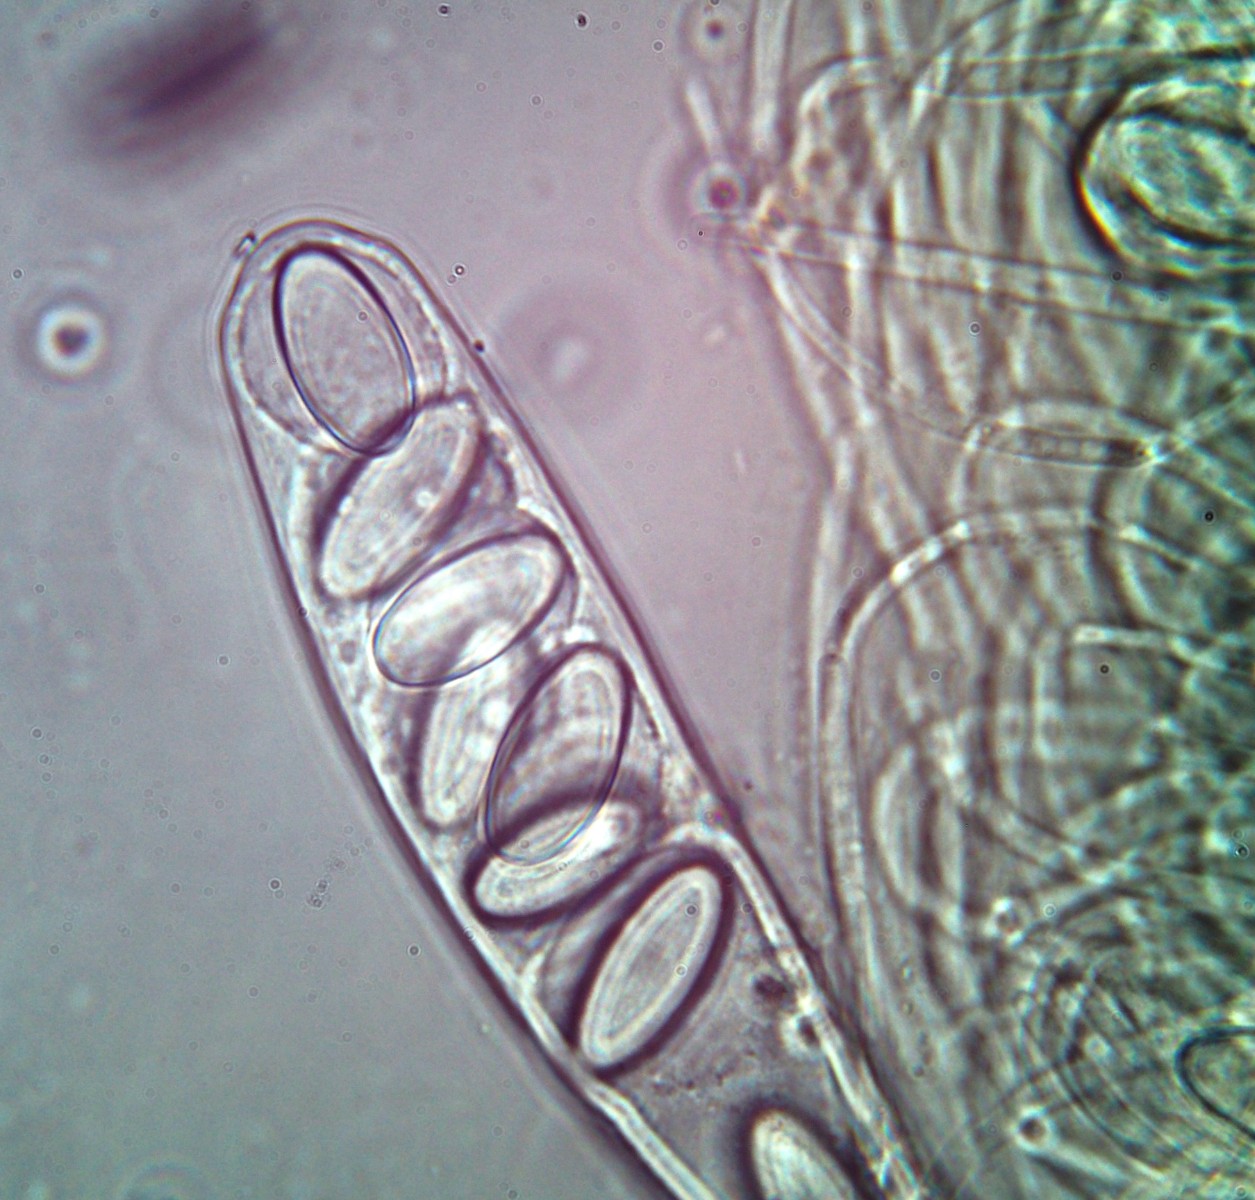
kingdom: Fungi
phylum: Ascomycota
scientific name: Ascomycota
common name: sæksvampe
